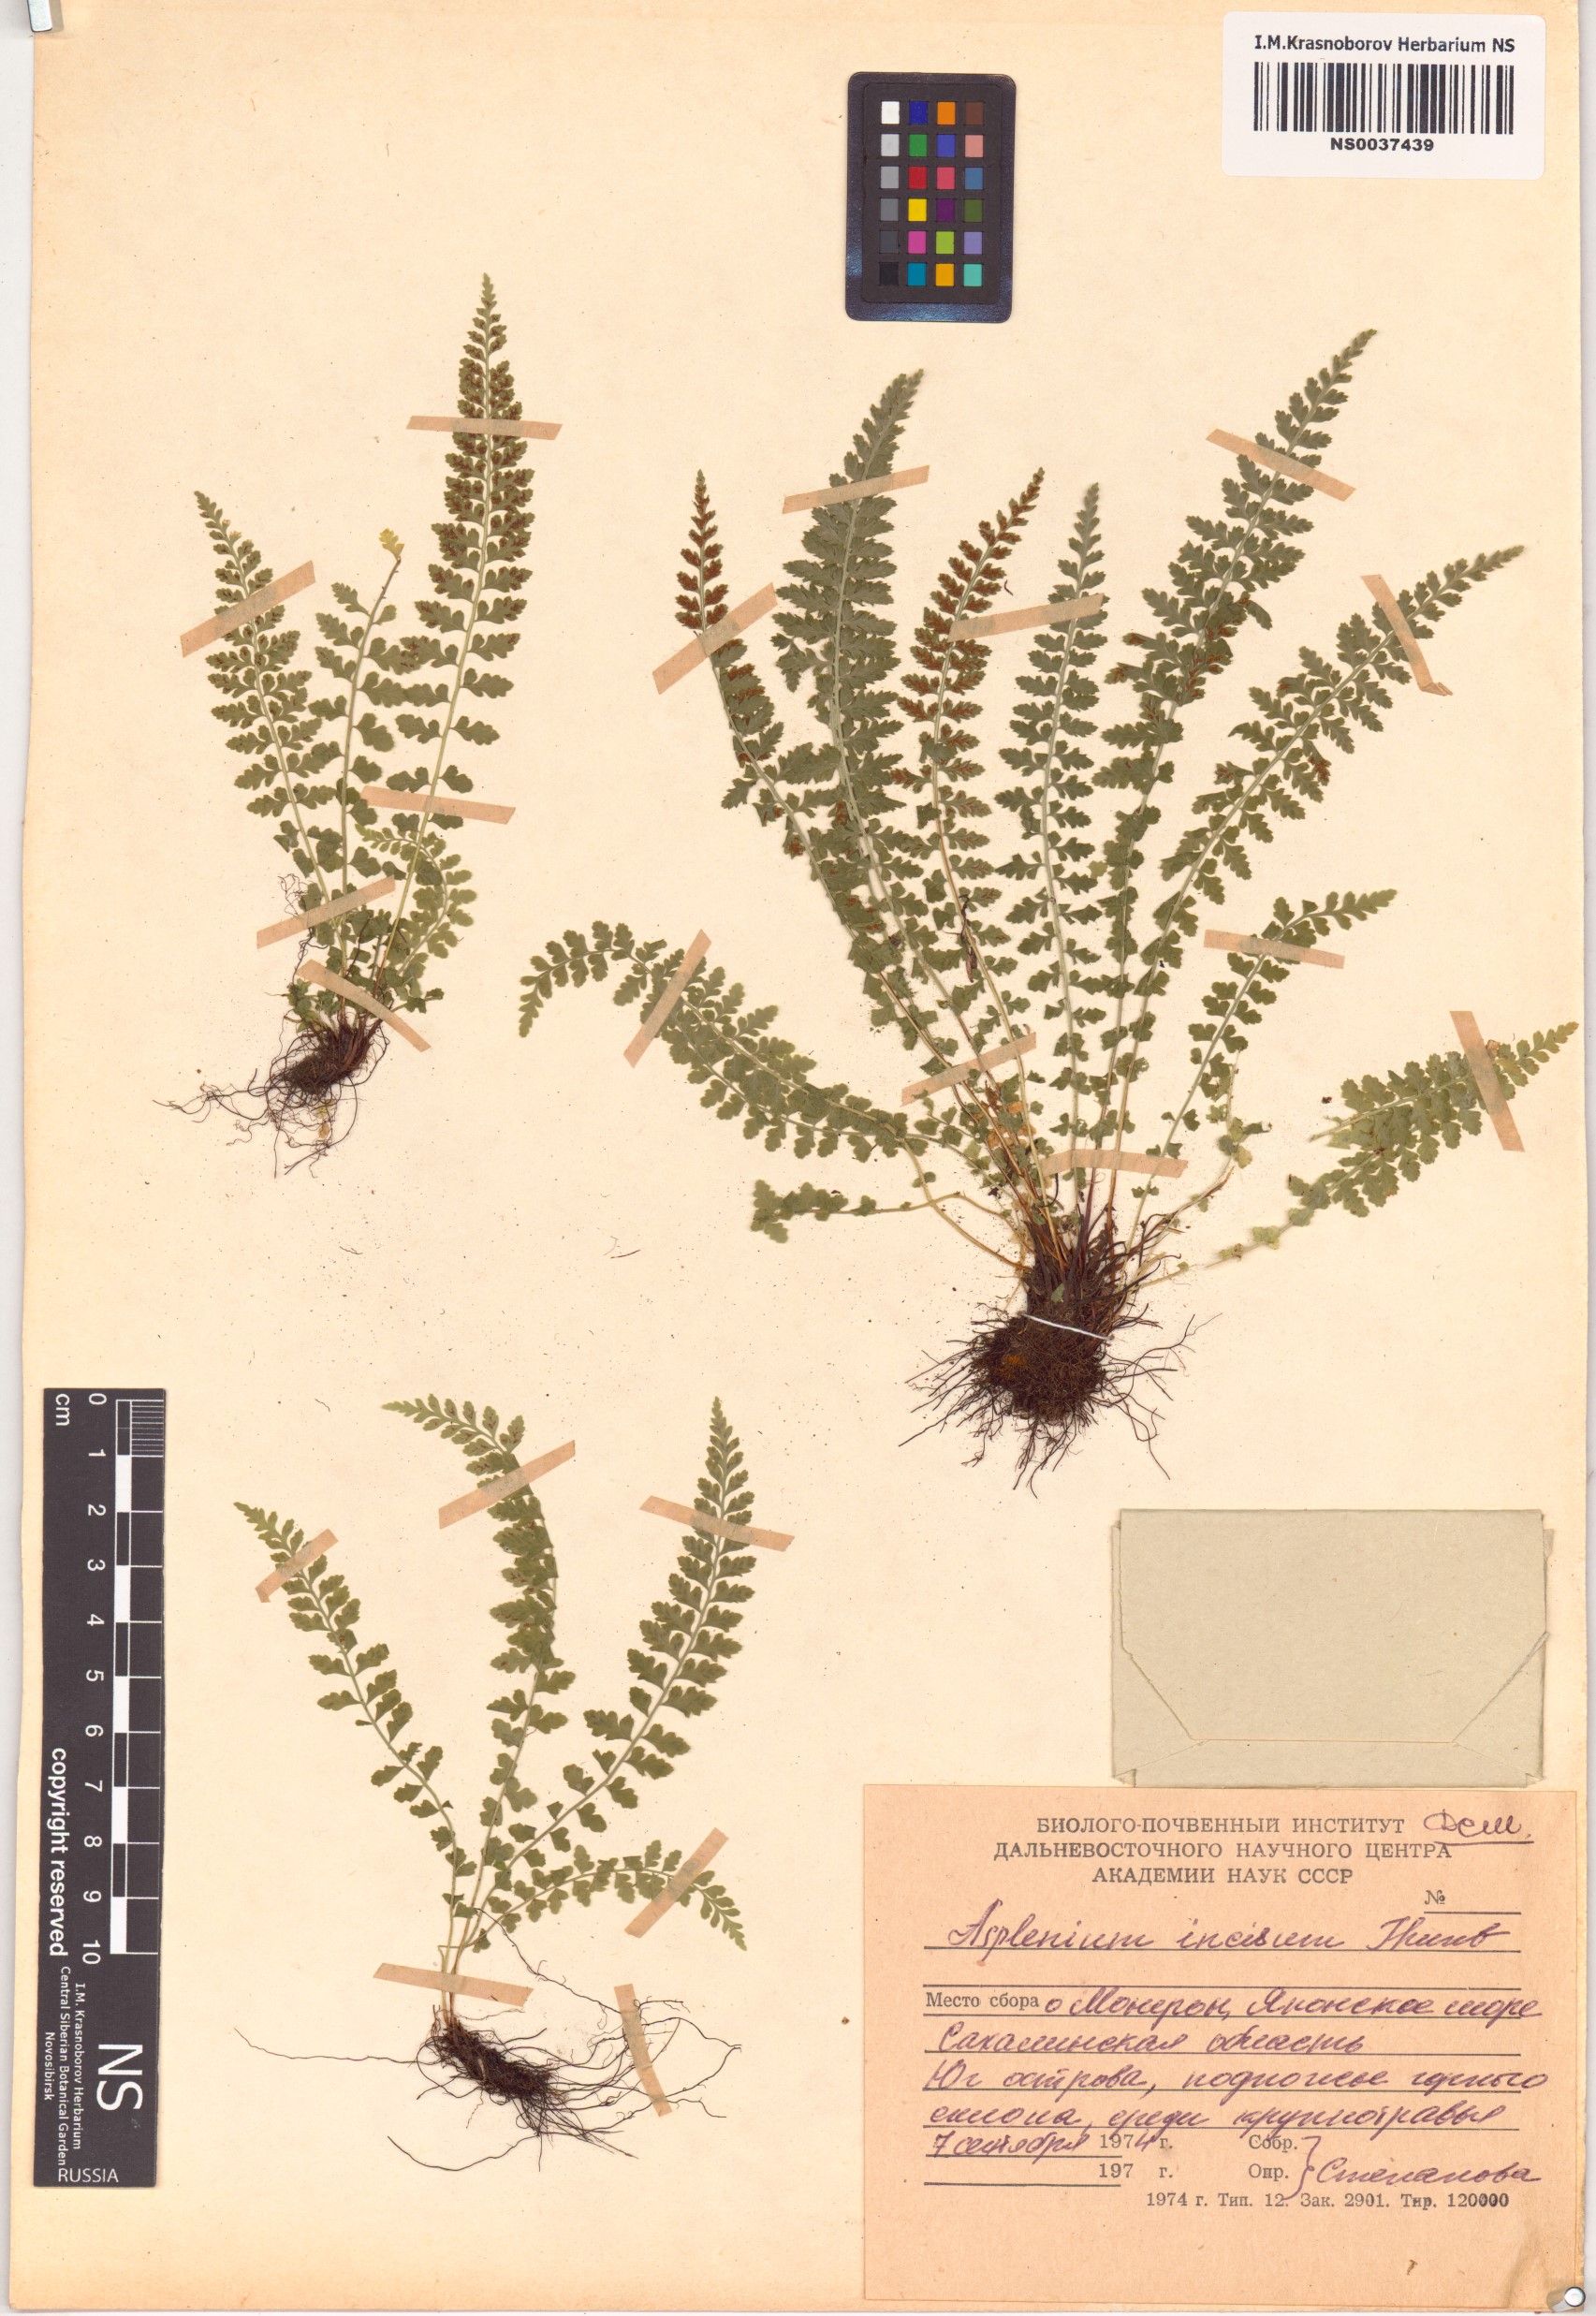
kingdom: Plantae
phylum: Tracheophyta
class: Polypodiopsida
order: Polypodiales
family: Aspleniaceae
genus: Asplenium
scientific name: Asplenium incisum
